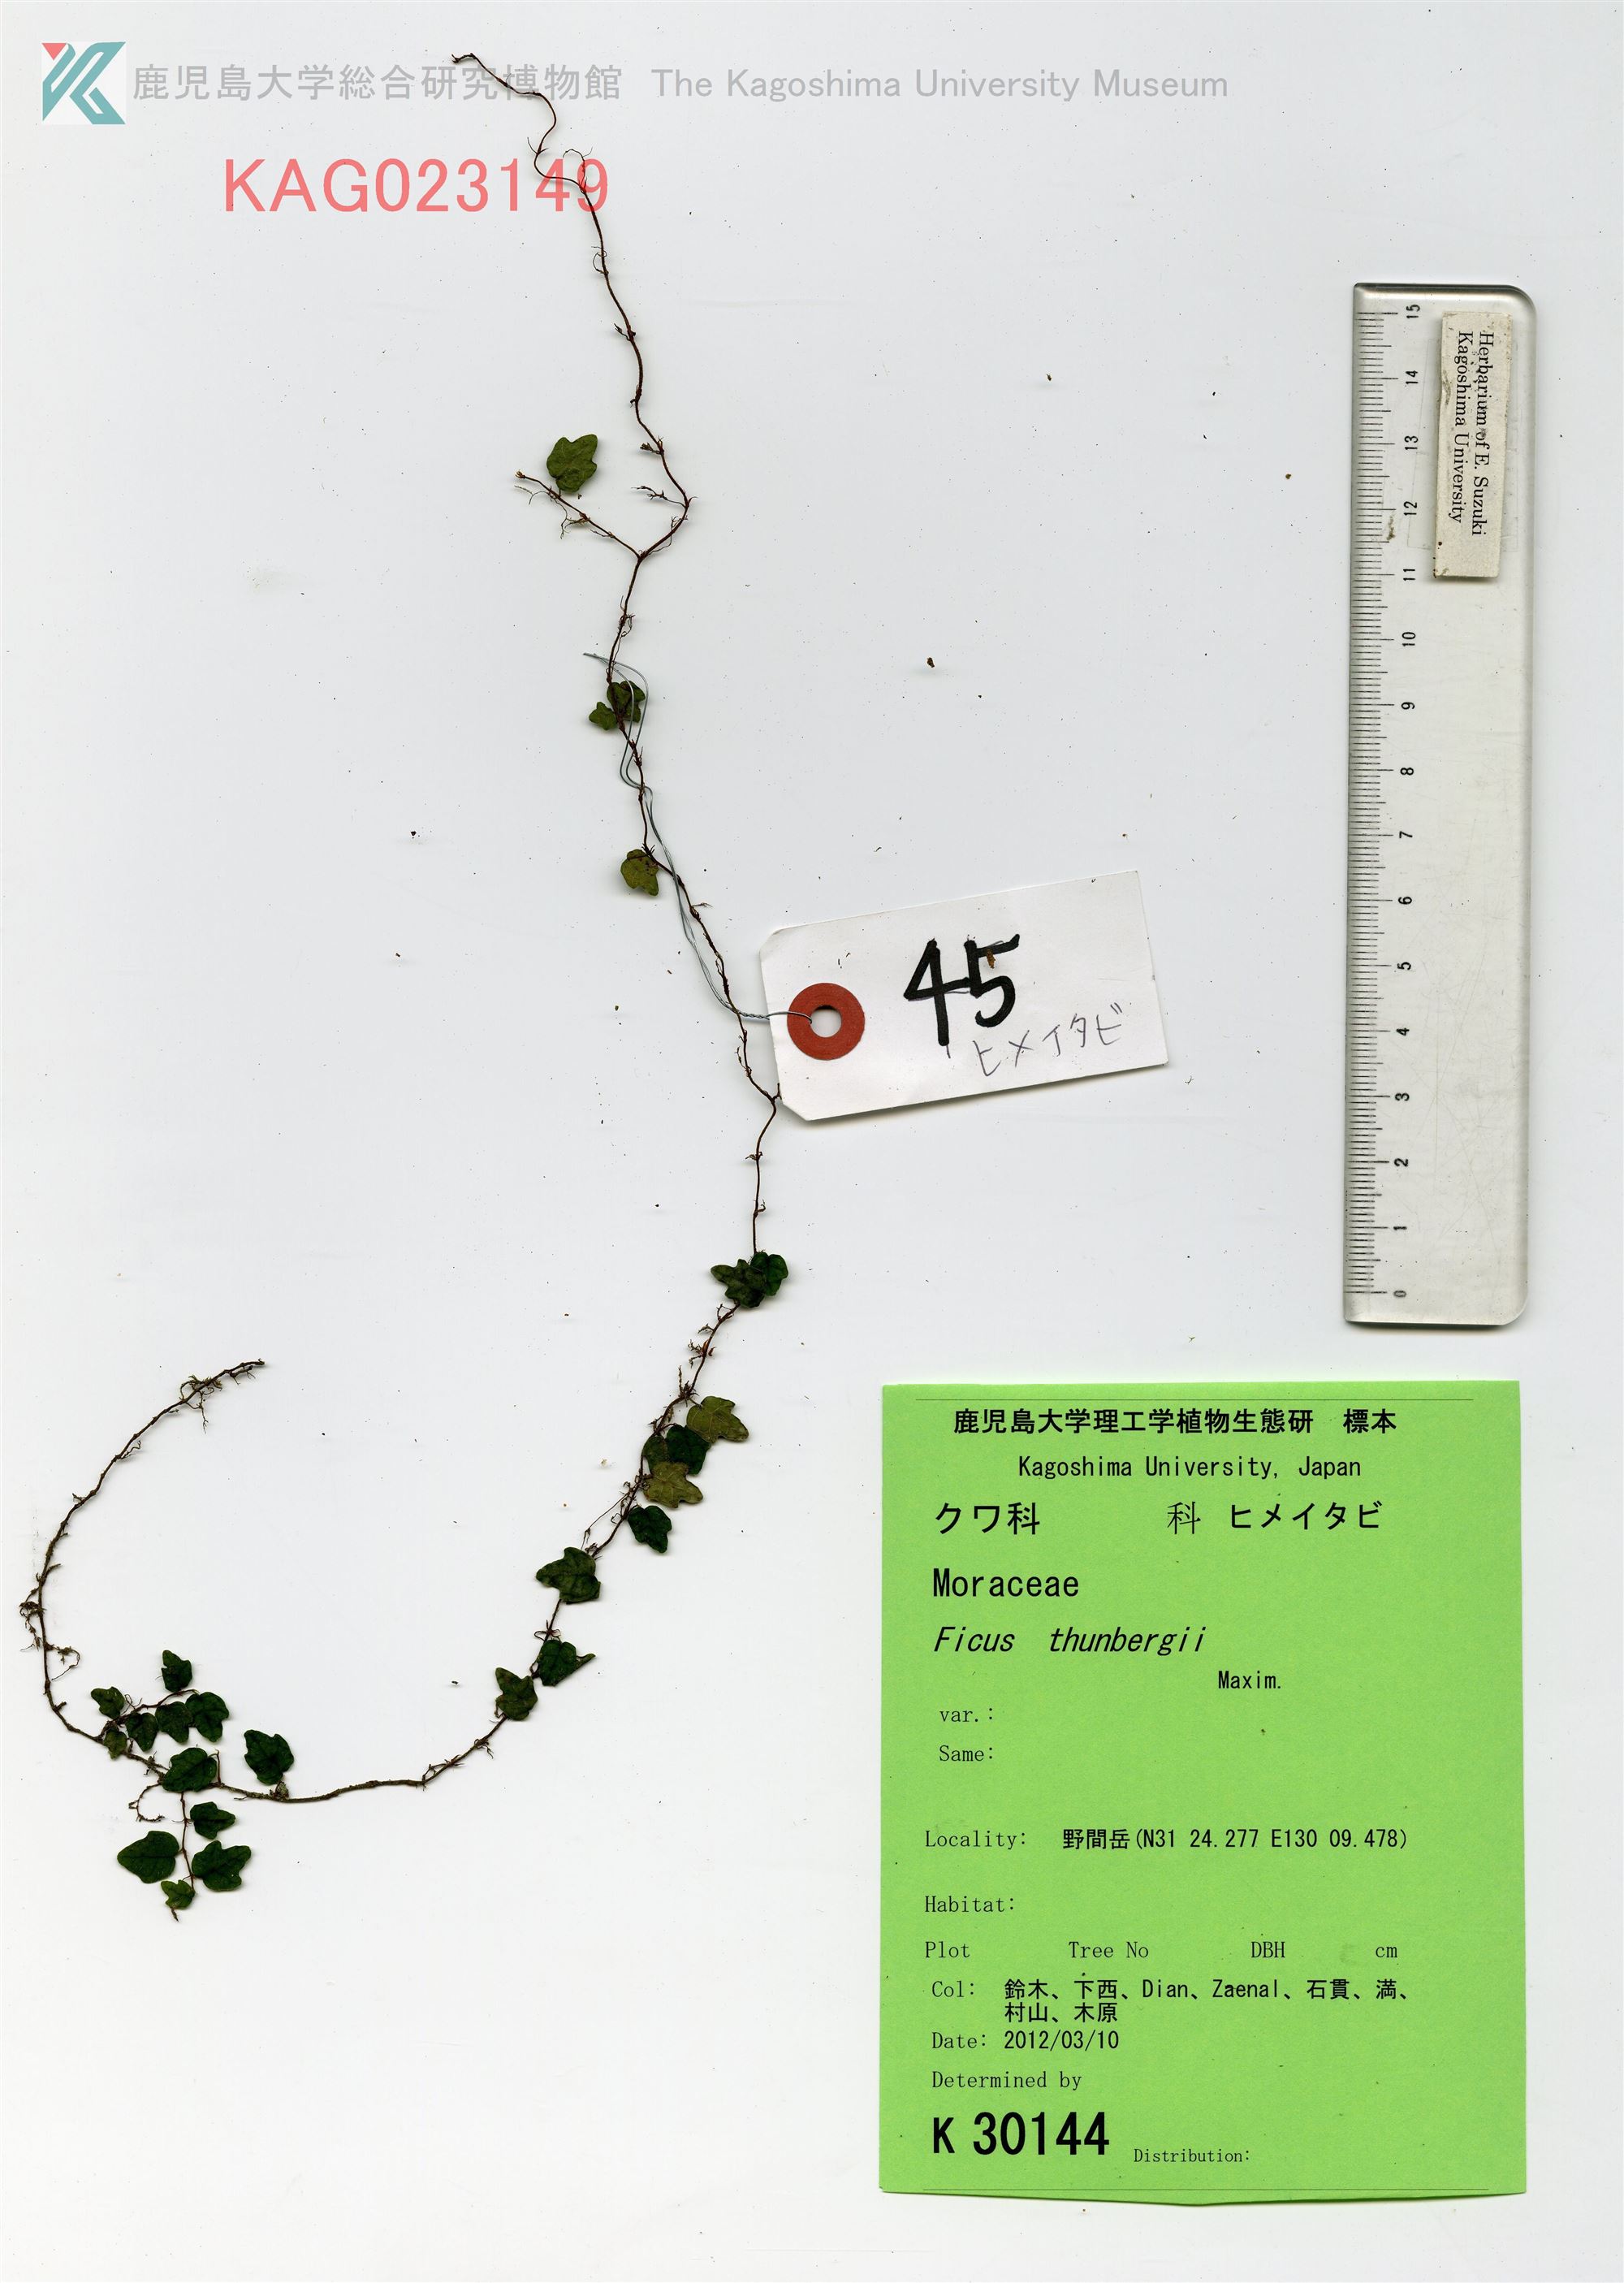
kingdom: Plantae
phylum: Tracheophyta
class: Magnoliopsida
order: Rosales
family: Moraceae
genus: Ficus
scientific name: Ficus sarmentosa
